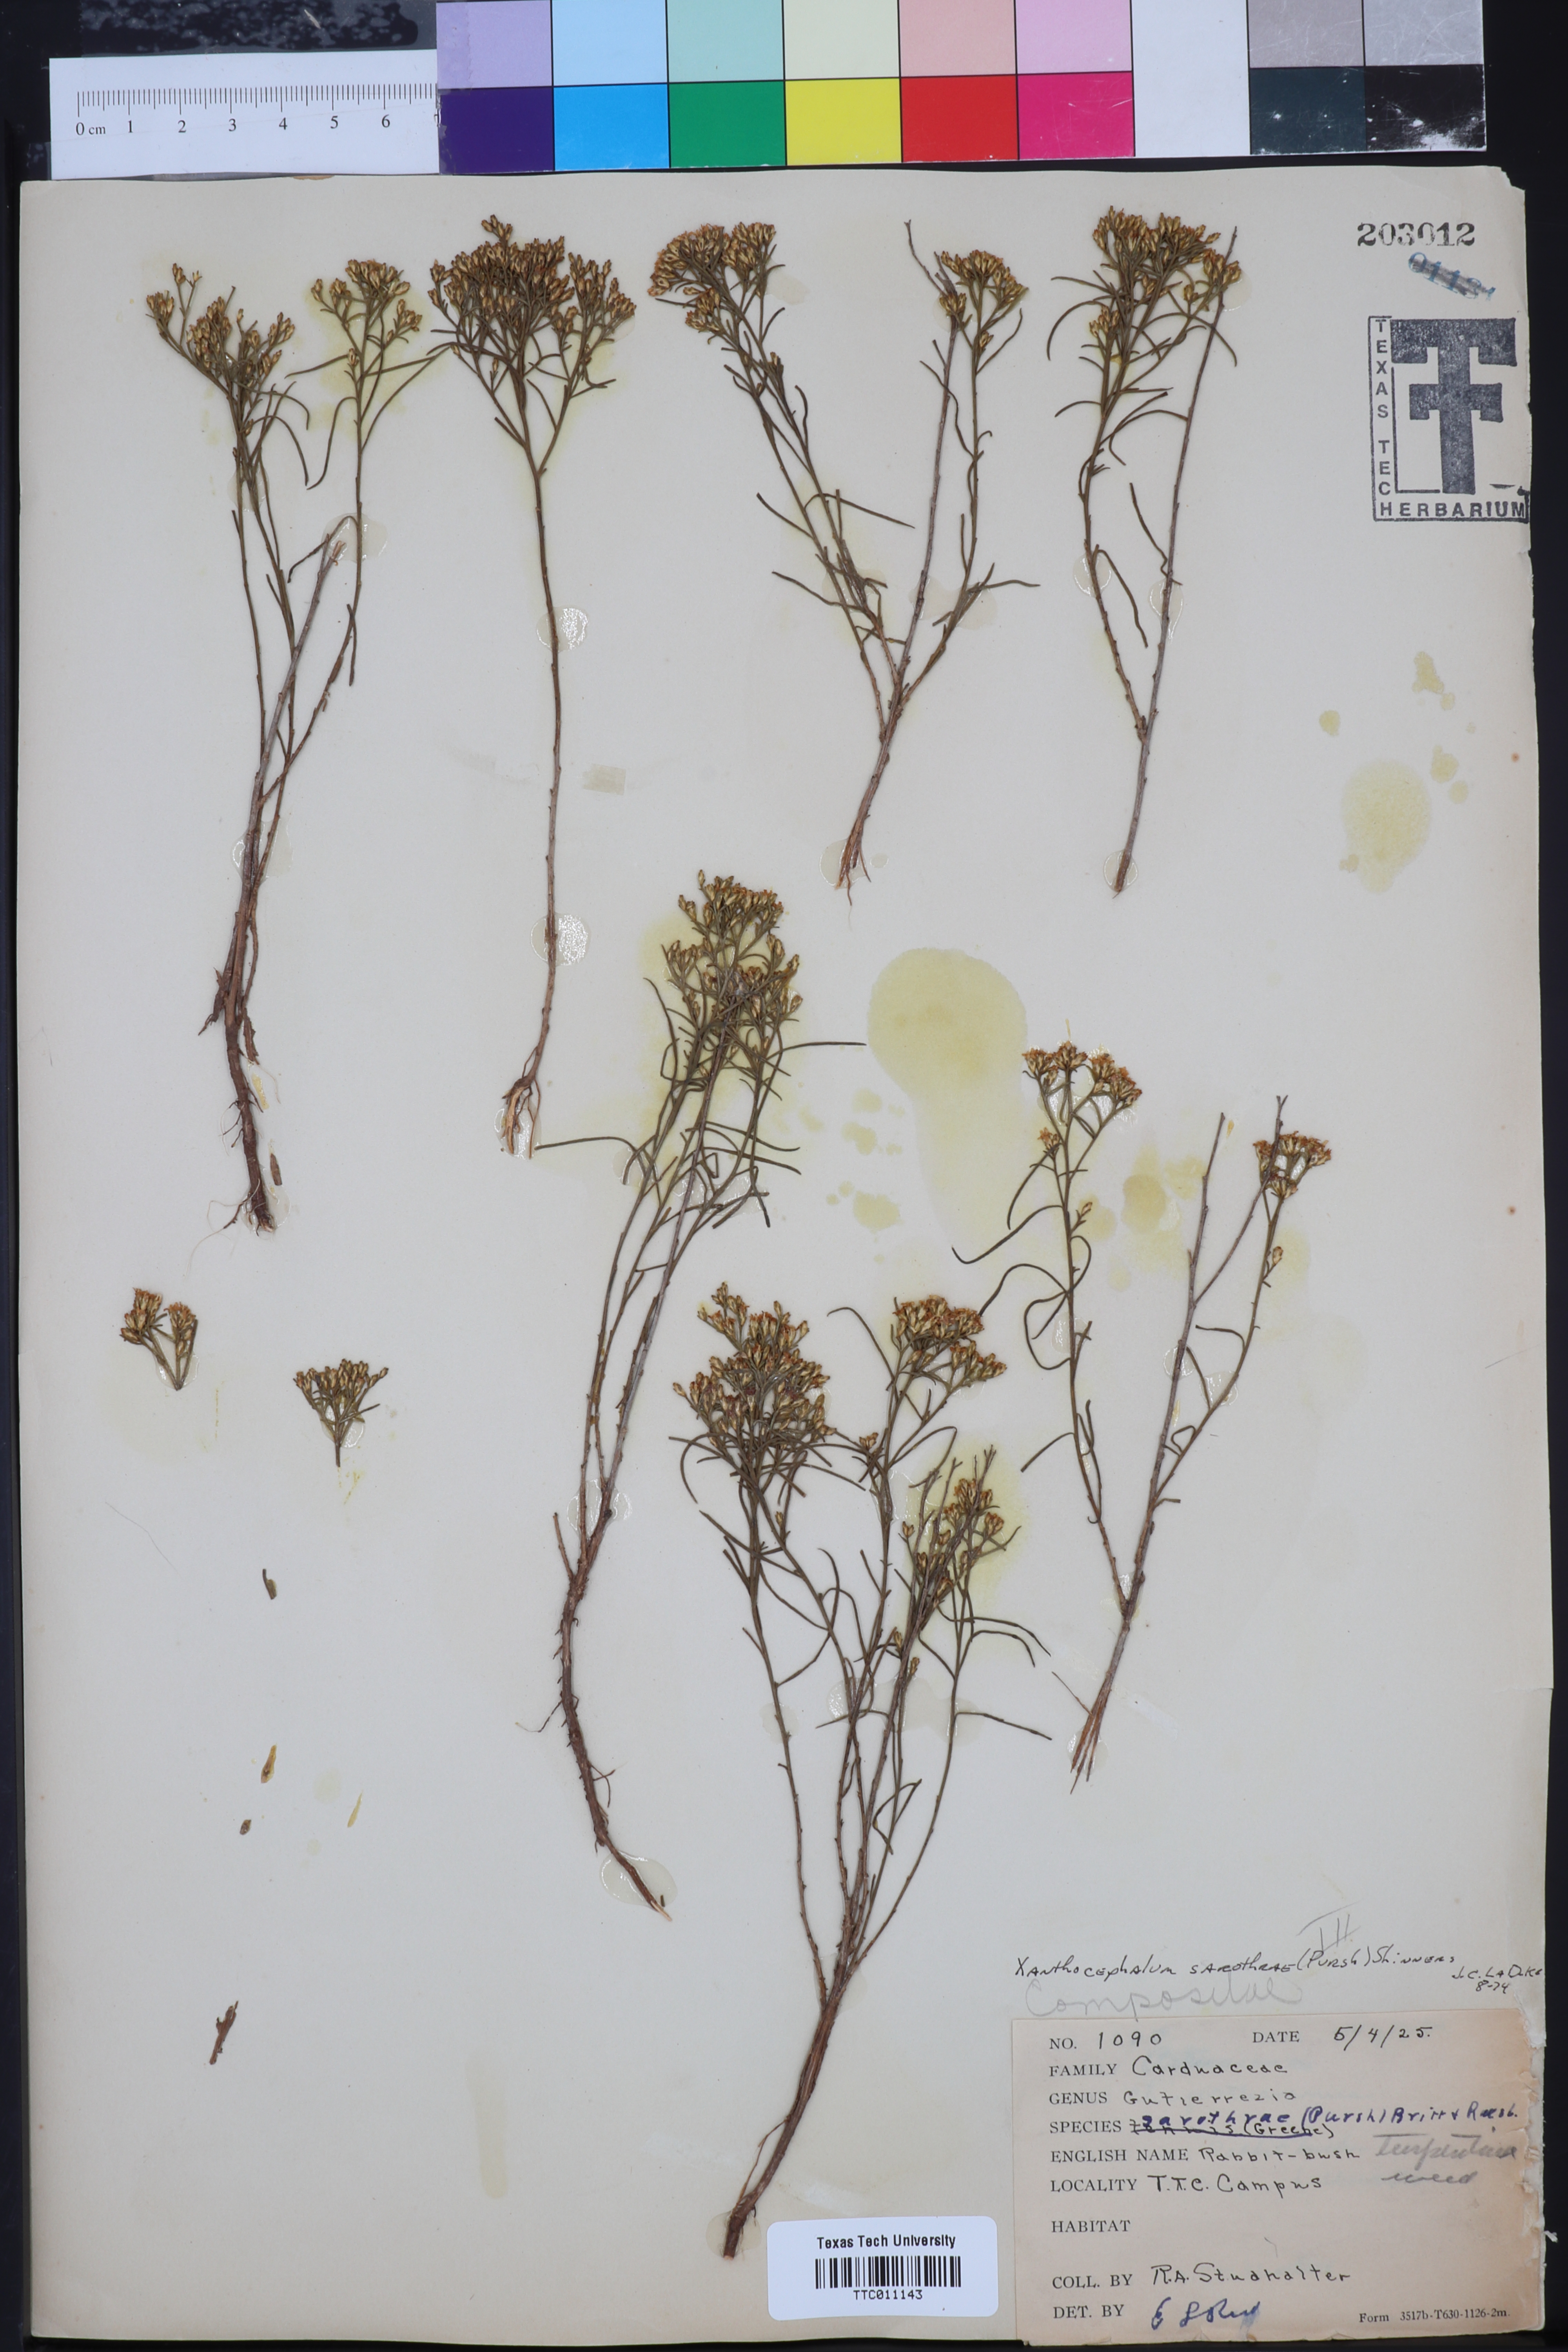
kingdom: Plantae
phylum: Tracheophyta
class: Magnoliopsida
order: Asterales
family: Asteraceae
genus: Gutierrezia
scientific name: Gutierrezia sarothrae
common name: Broom snakeweed
